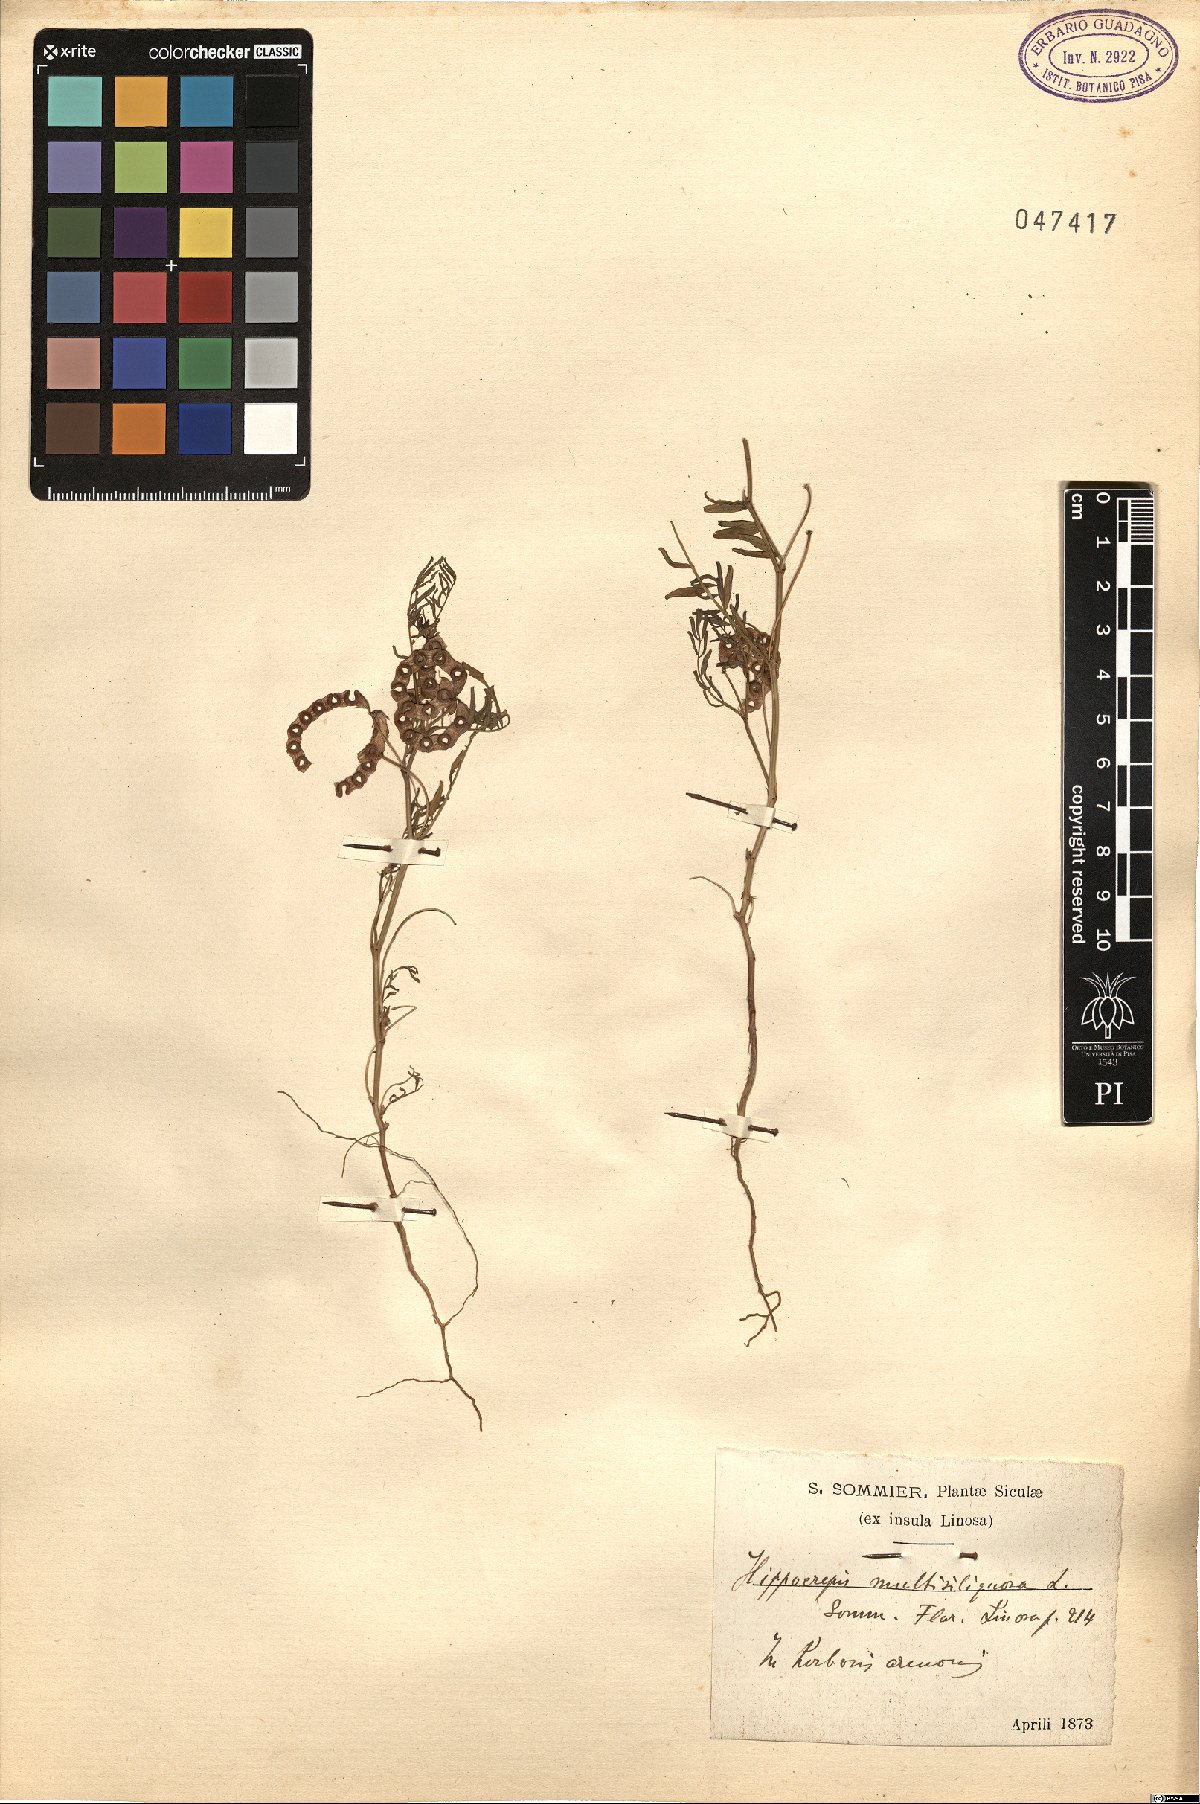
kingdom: Plantae
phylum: Tracheophyta
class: Magnoliopsida
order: Fabales
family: Fabaceae
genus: Hippocrepis
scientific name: Hippocrepis multisiliquosa
